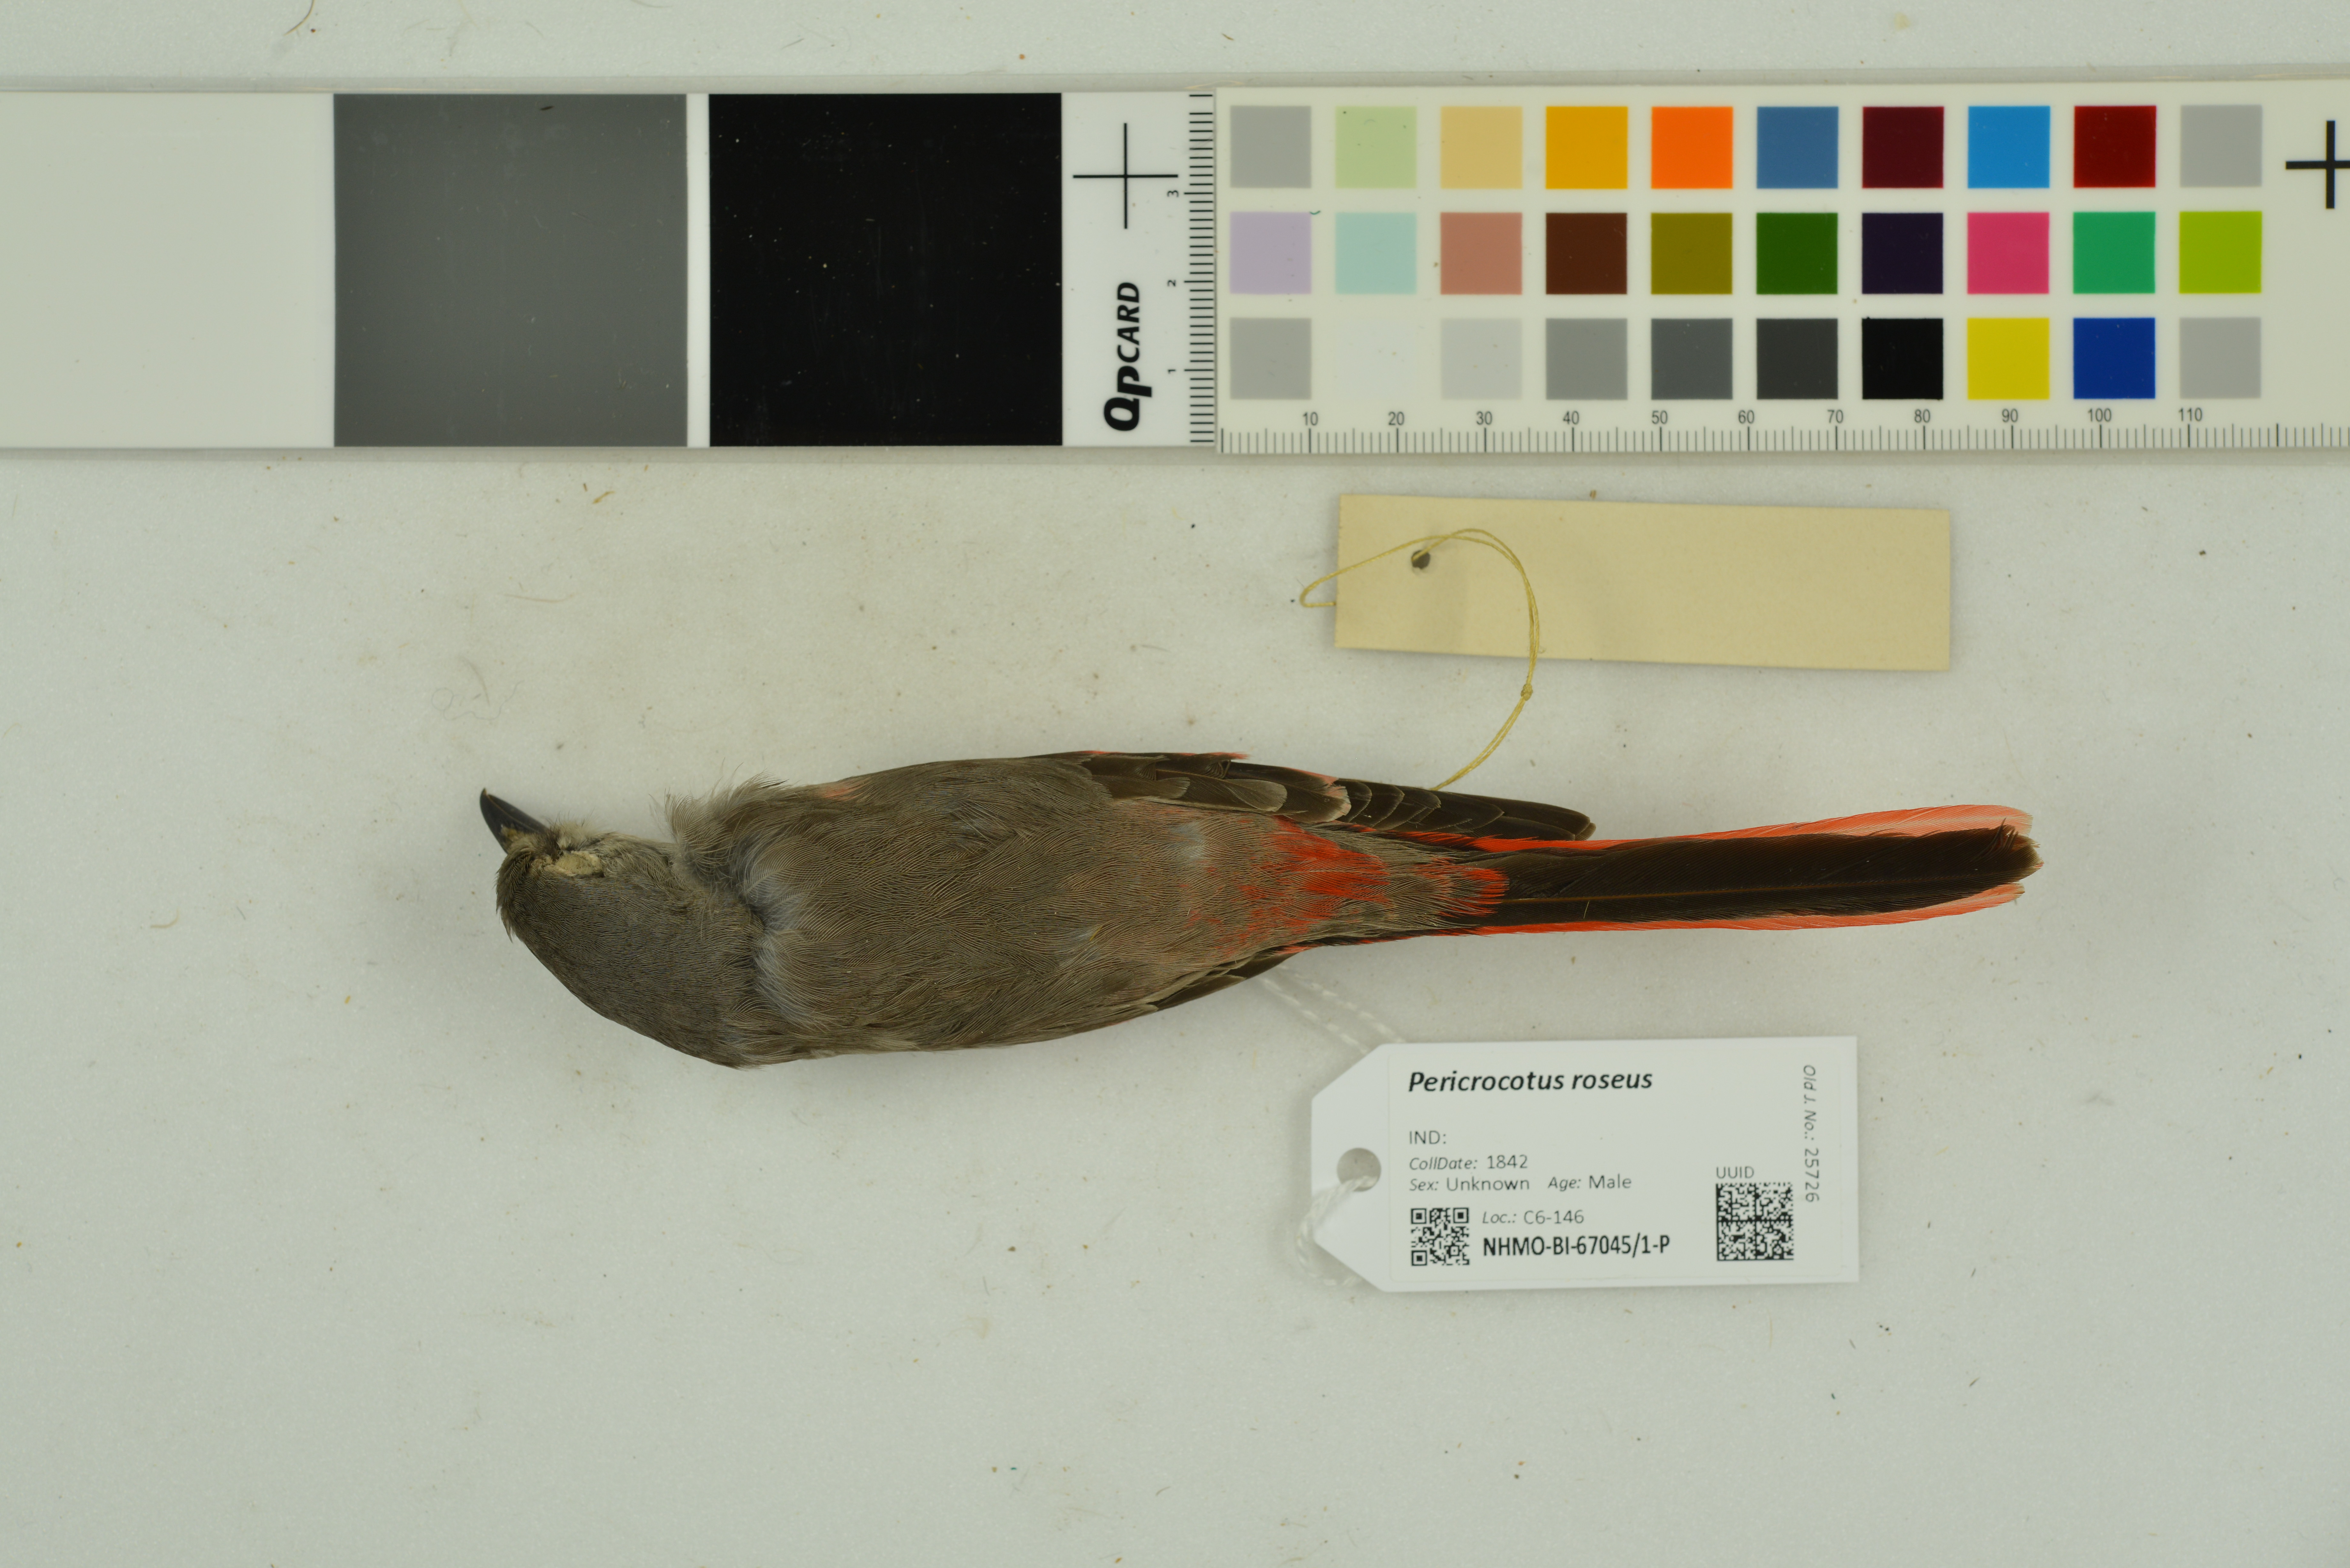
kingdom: Animalia
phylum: Chordata
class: Aves
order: Passeriformes
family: Campephagidae
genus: Pericrocotus
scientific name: Pericrocotus roseus
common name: Rosy minivet
